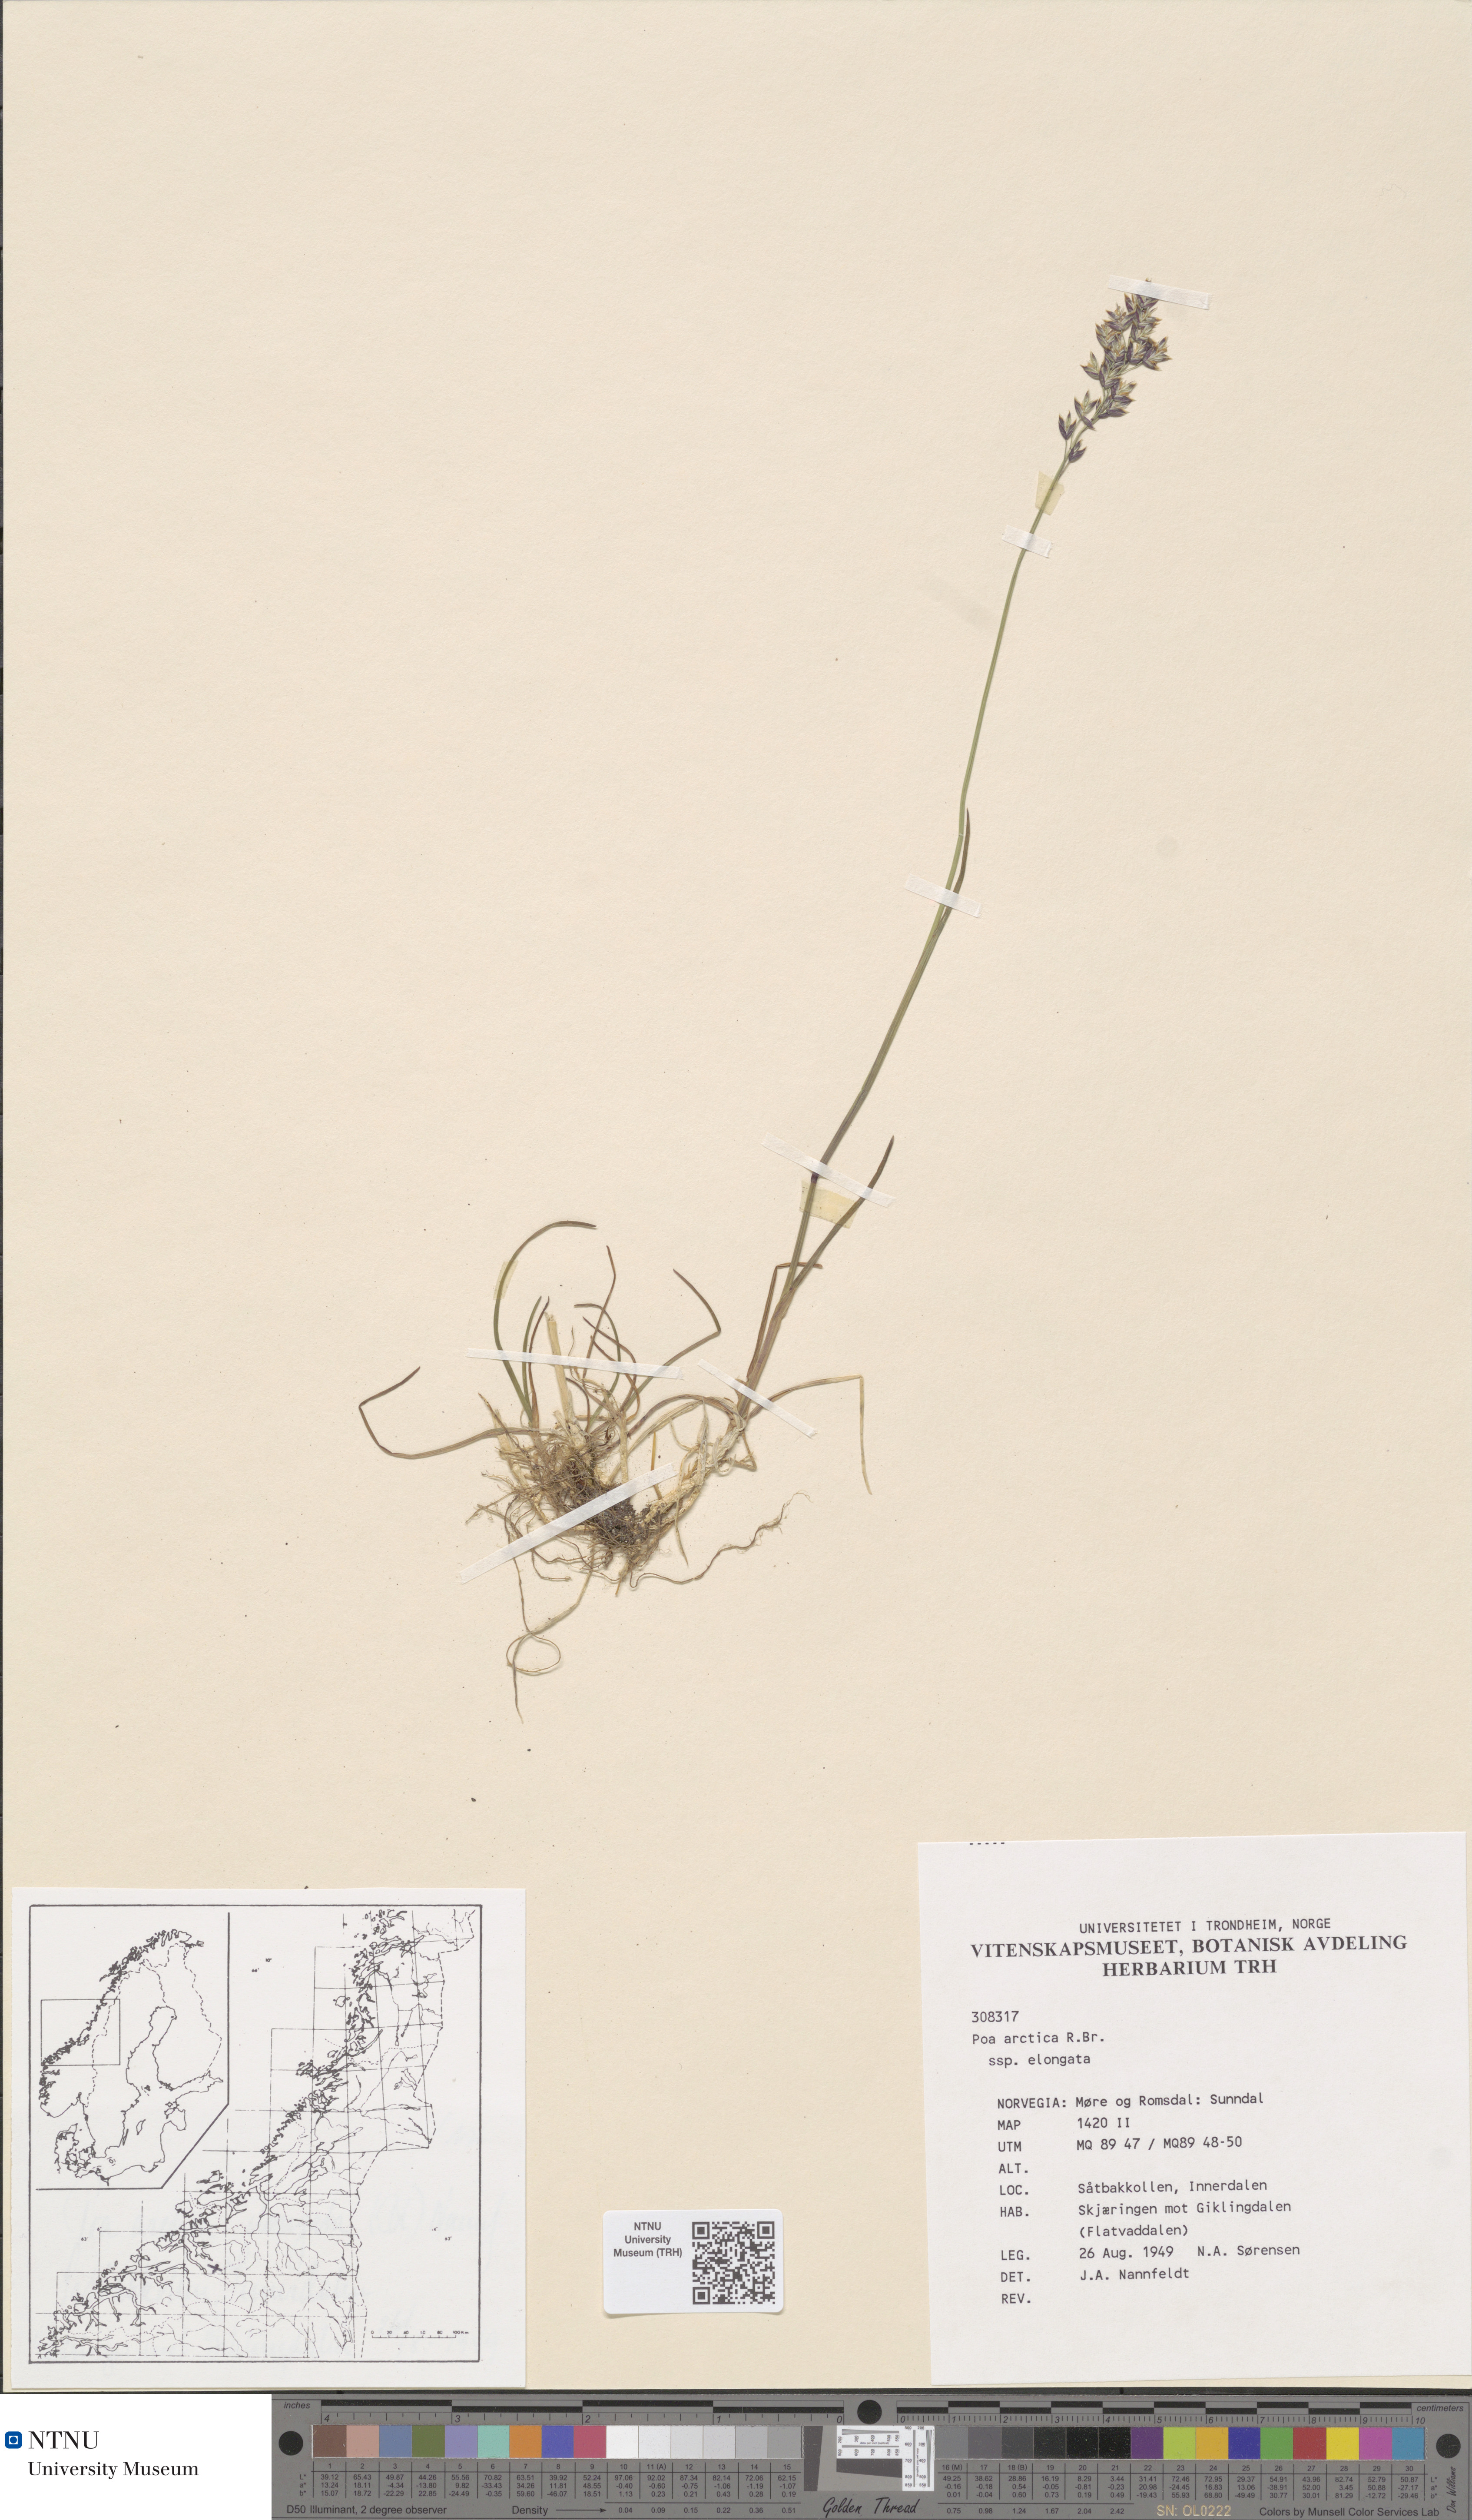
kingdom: Plantae
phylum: Tracheophyta
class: Liliopsida
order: Poales
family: Poaceae
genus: Poa
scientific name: Poa arctica
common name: Arctic bluegrass
